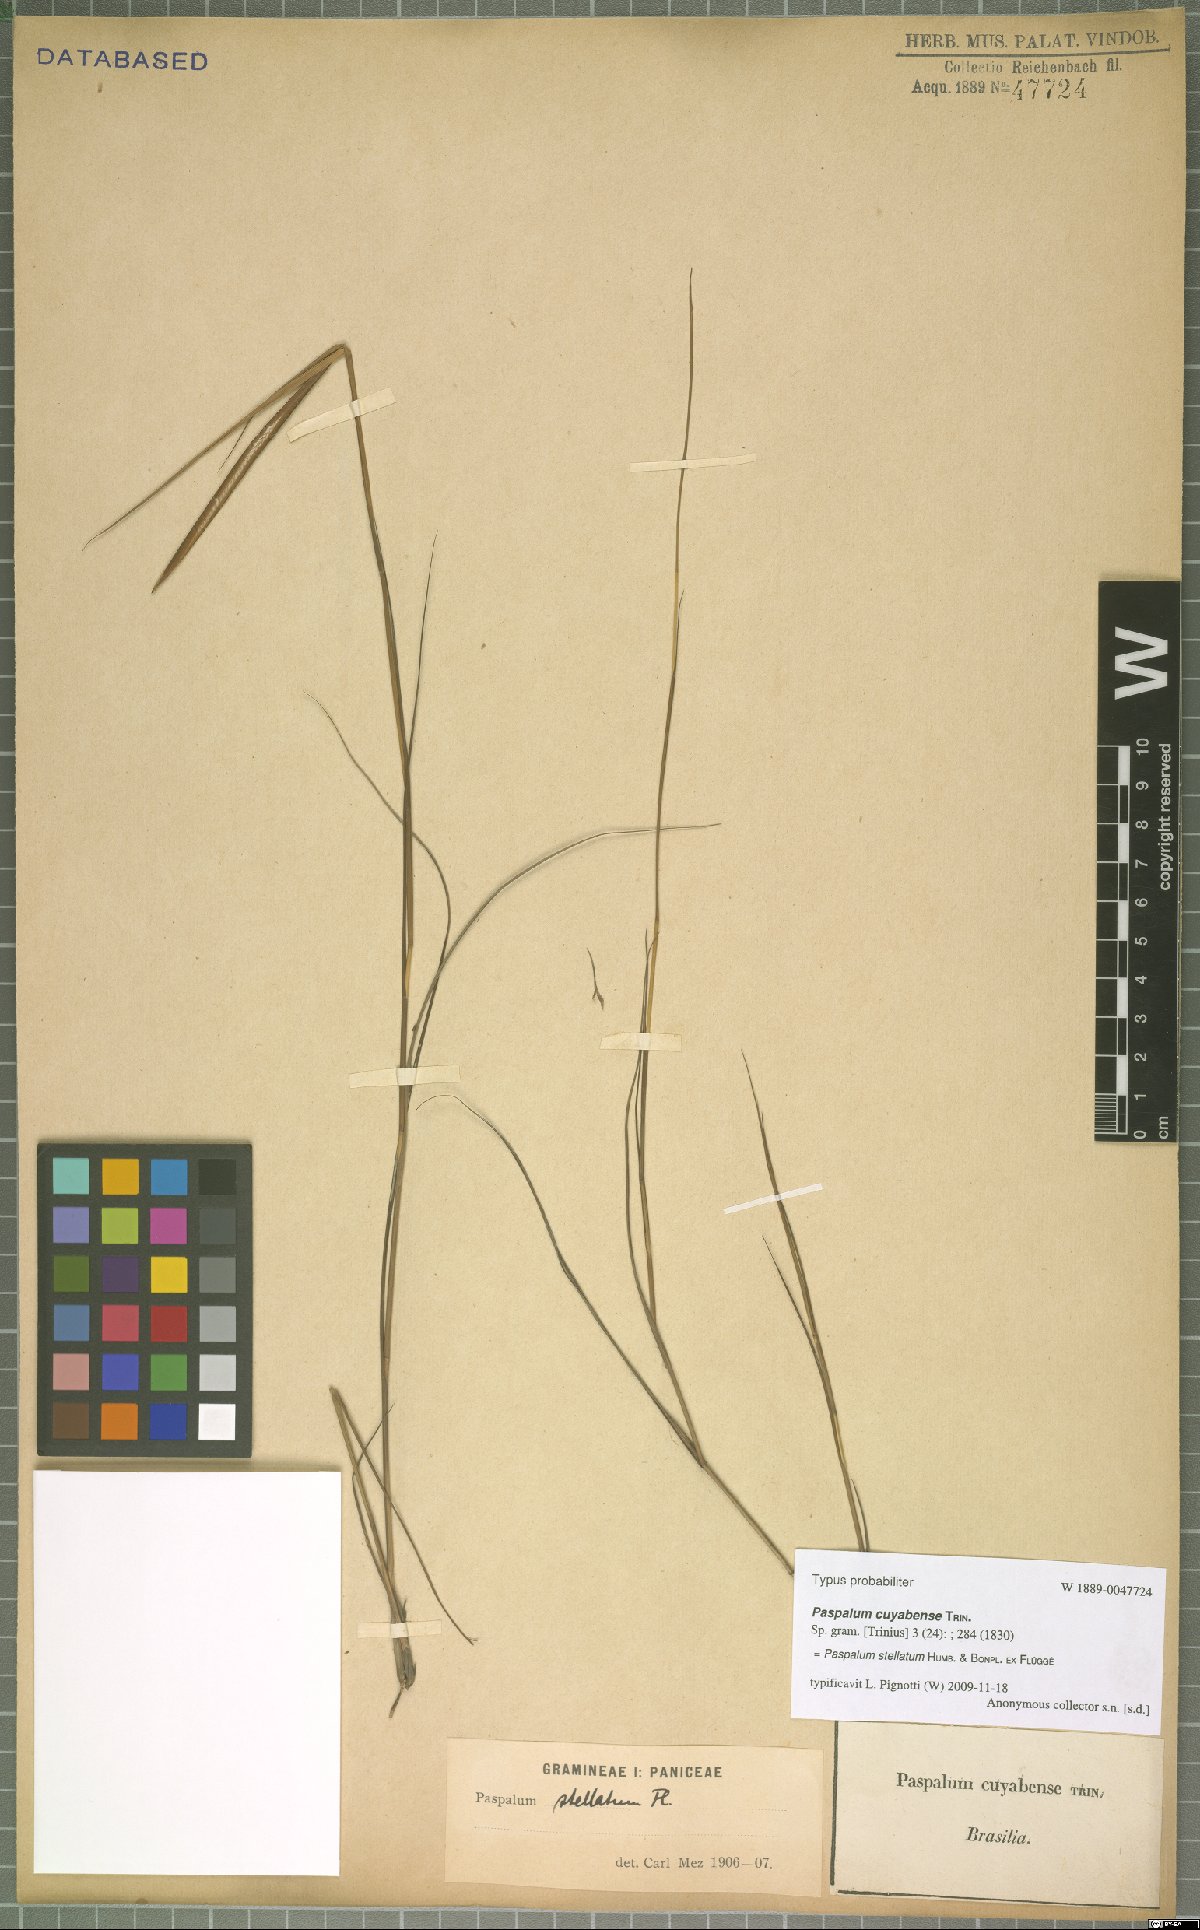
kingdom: Plantae
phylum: Tracheophyta
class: Liliopsida
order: Poales
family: Poaceae
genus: Paspalum
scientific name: Paspalum stellatum
